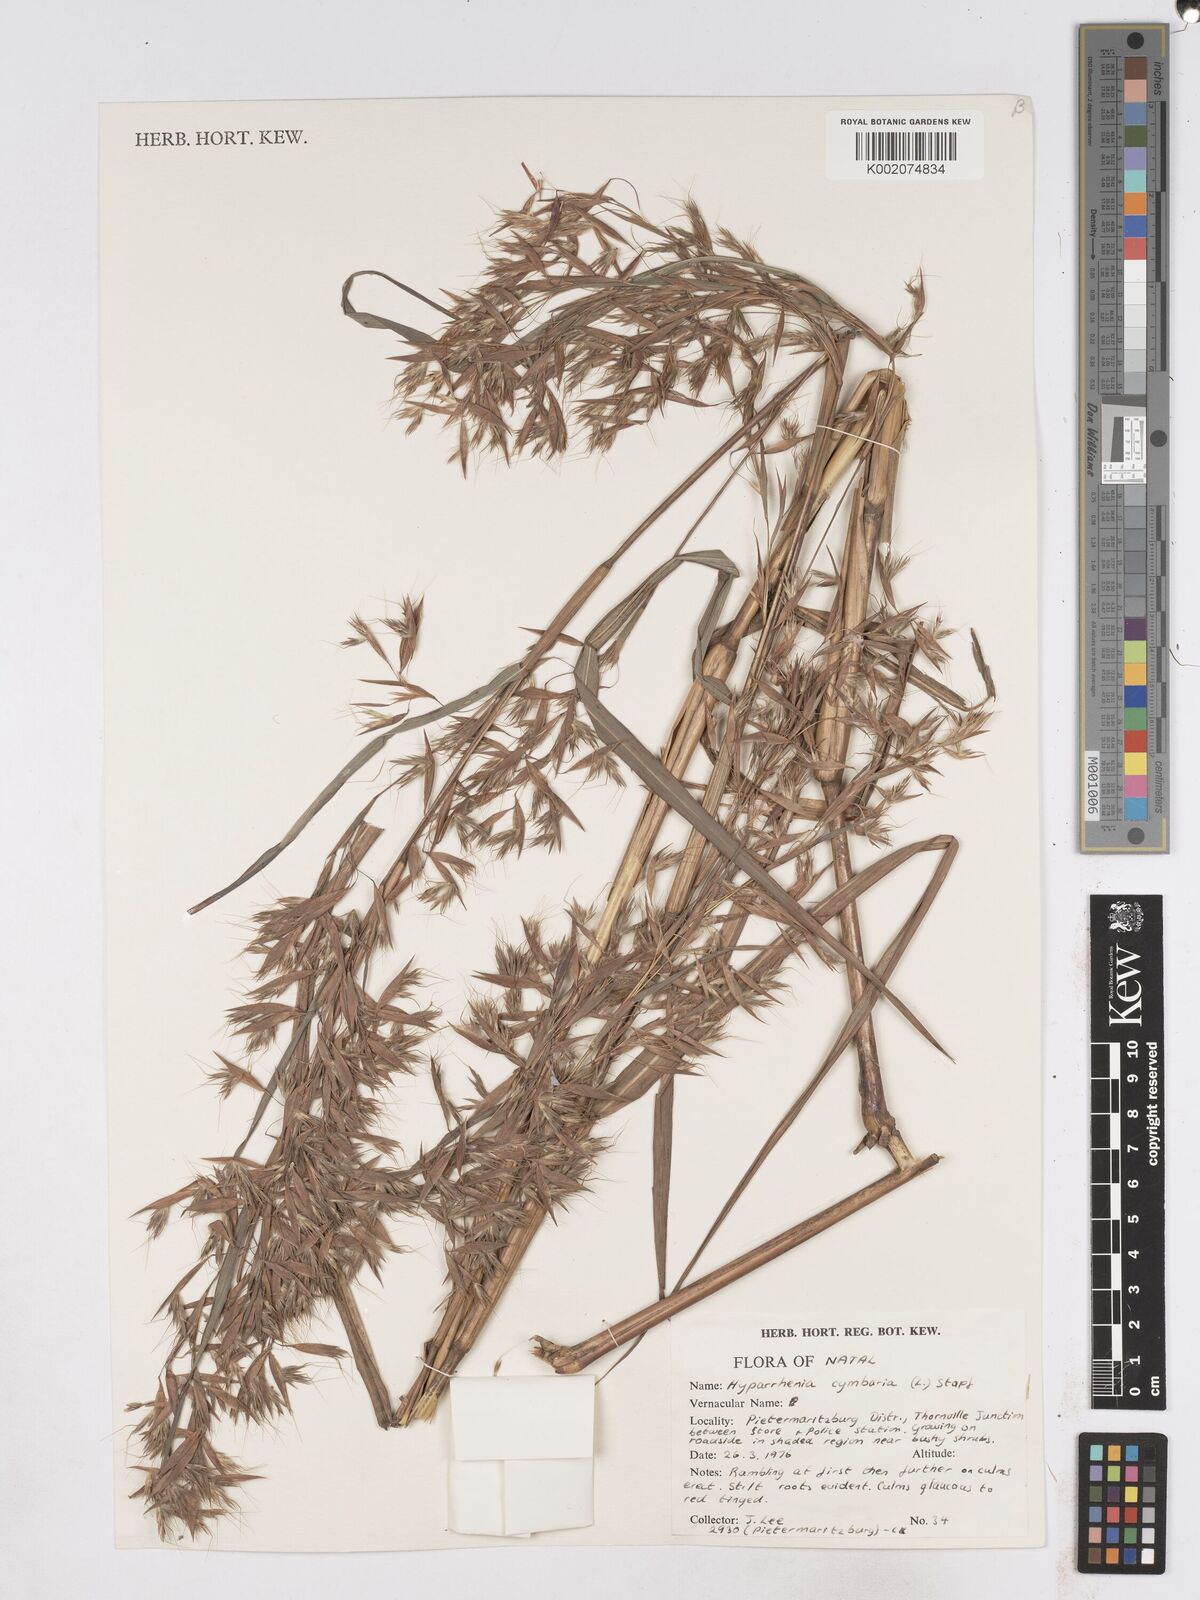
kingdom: Plantae
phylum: Tracheophyta
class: Liliopsida
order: Poales
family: Poaceae
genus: Hyparrhenia
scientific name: Hyparrhenia cymbaria
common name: Boat thatching grass
